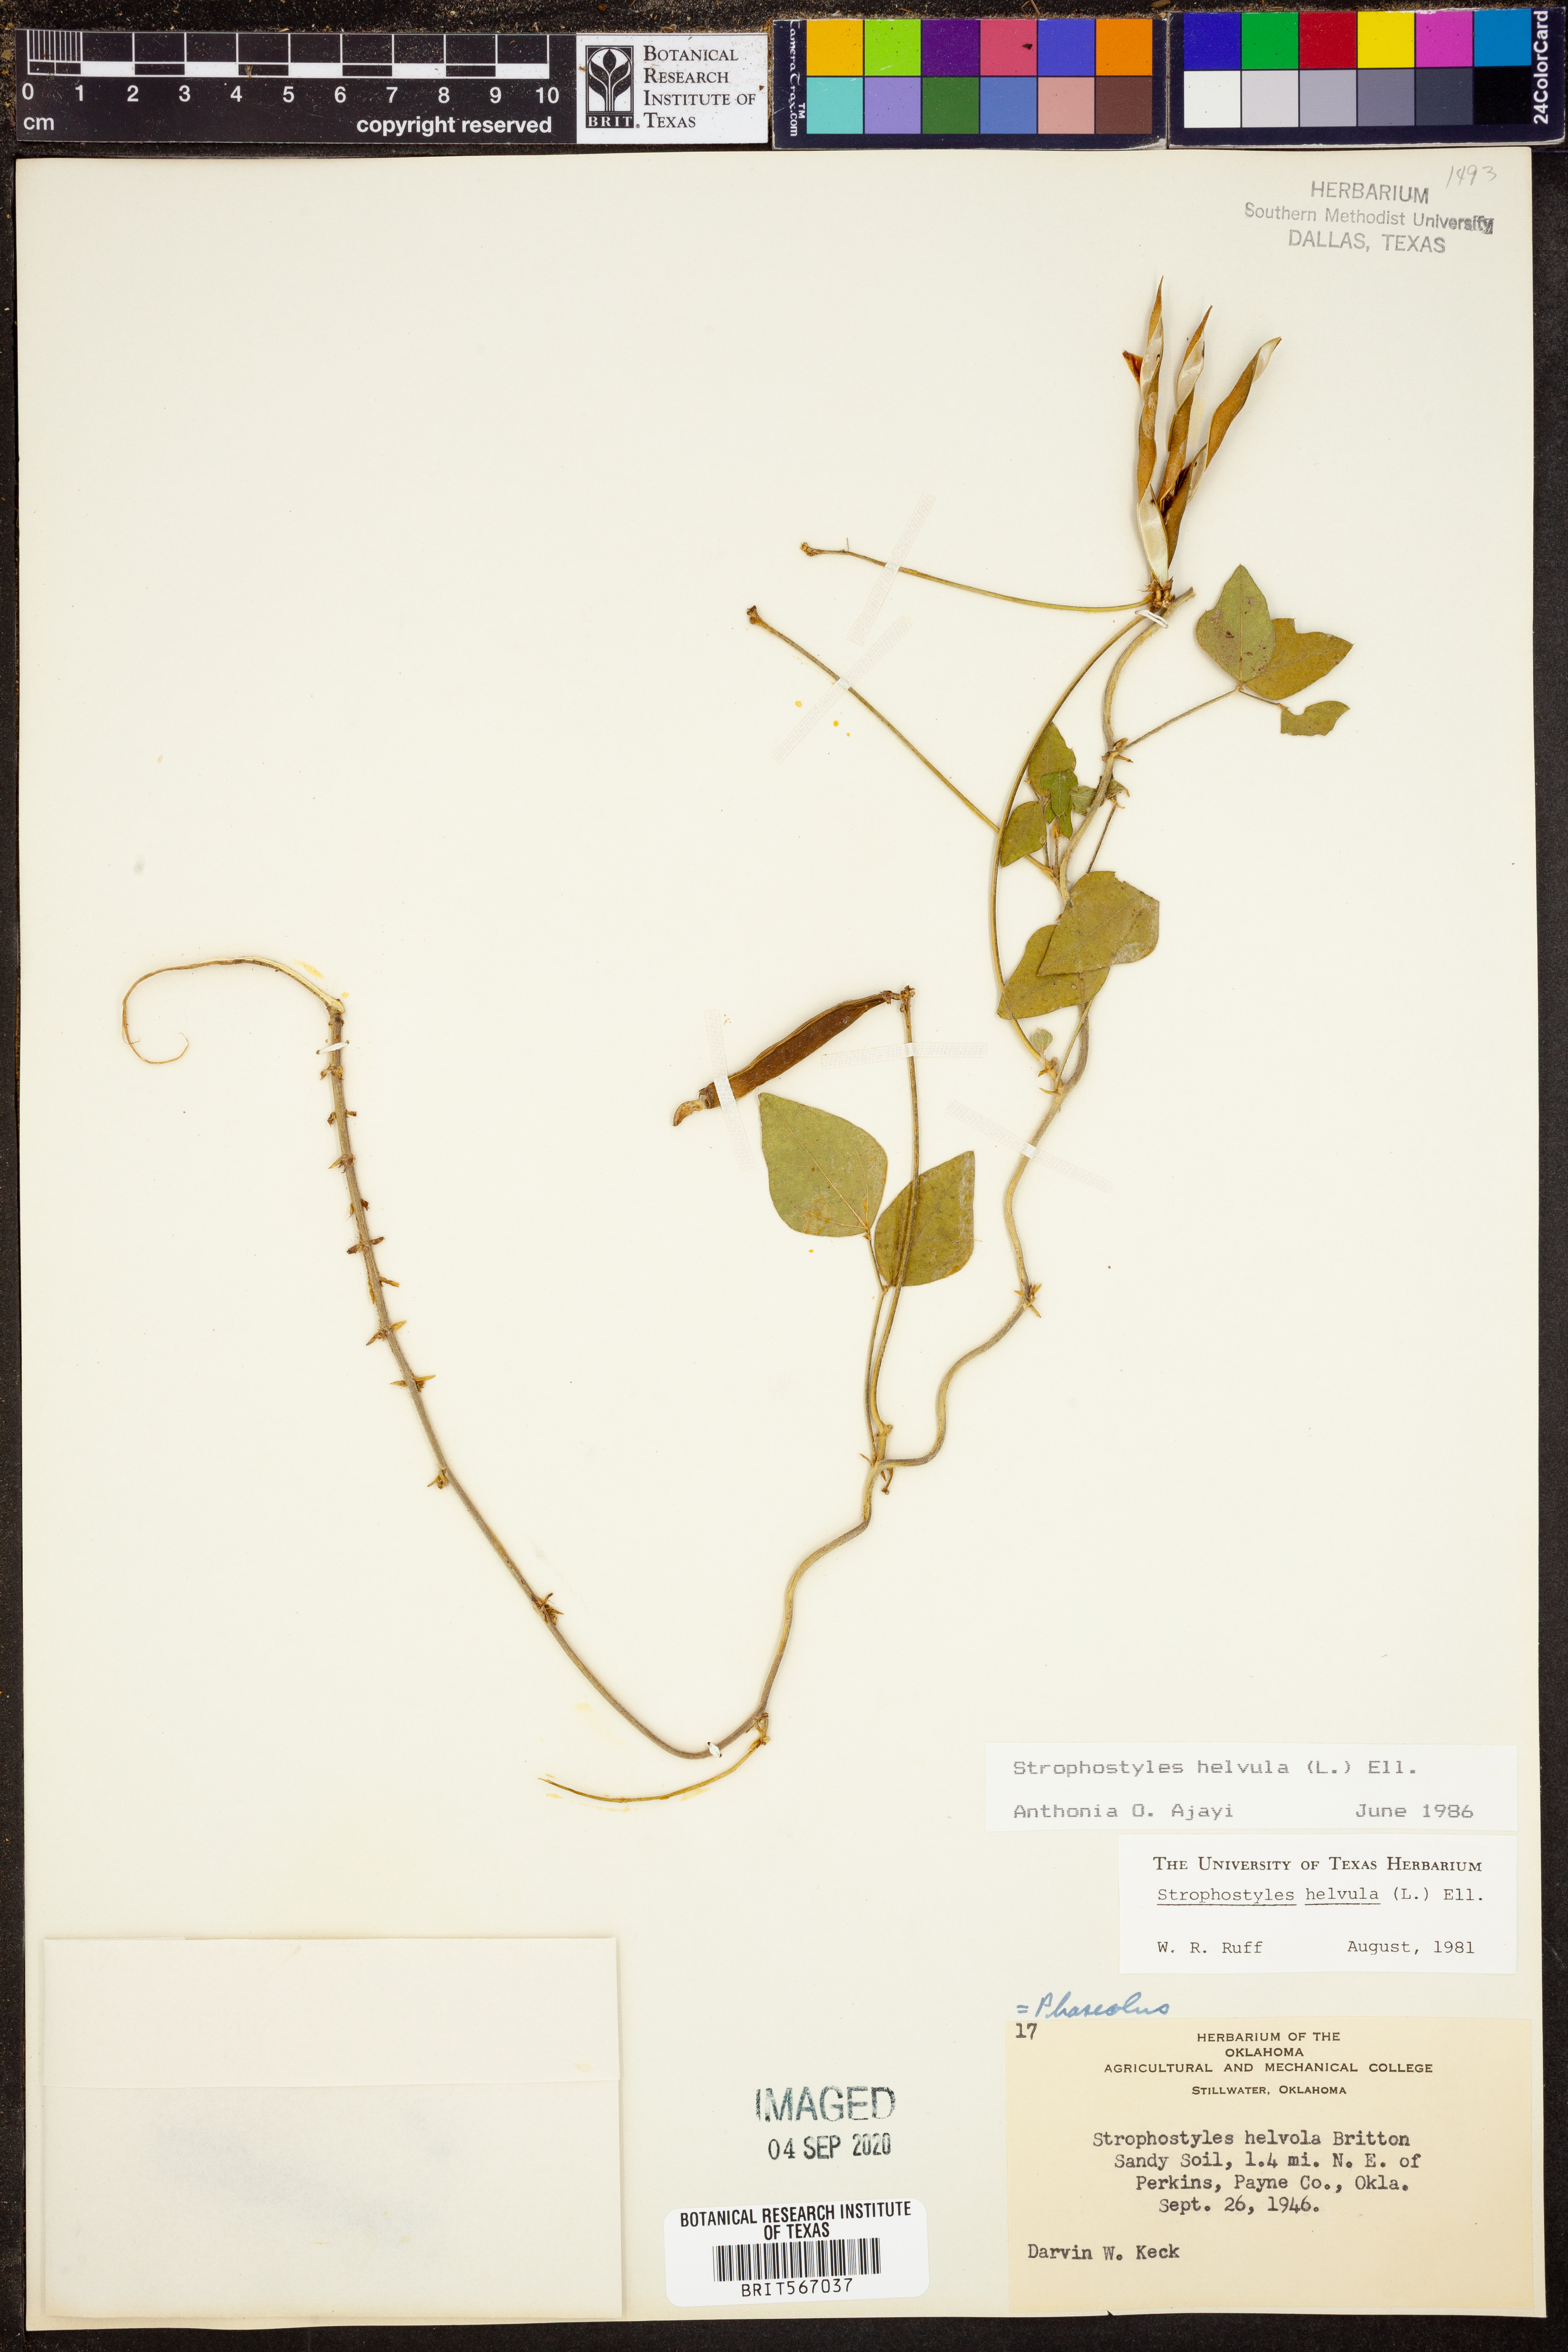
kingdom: Plantae
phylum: Tracheophyta
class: Magnoliopsida
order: Fabales
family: Fabaceae
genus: Strophostyles
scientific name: Strophostyles helvula
